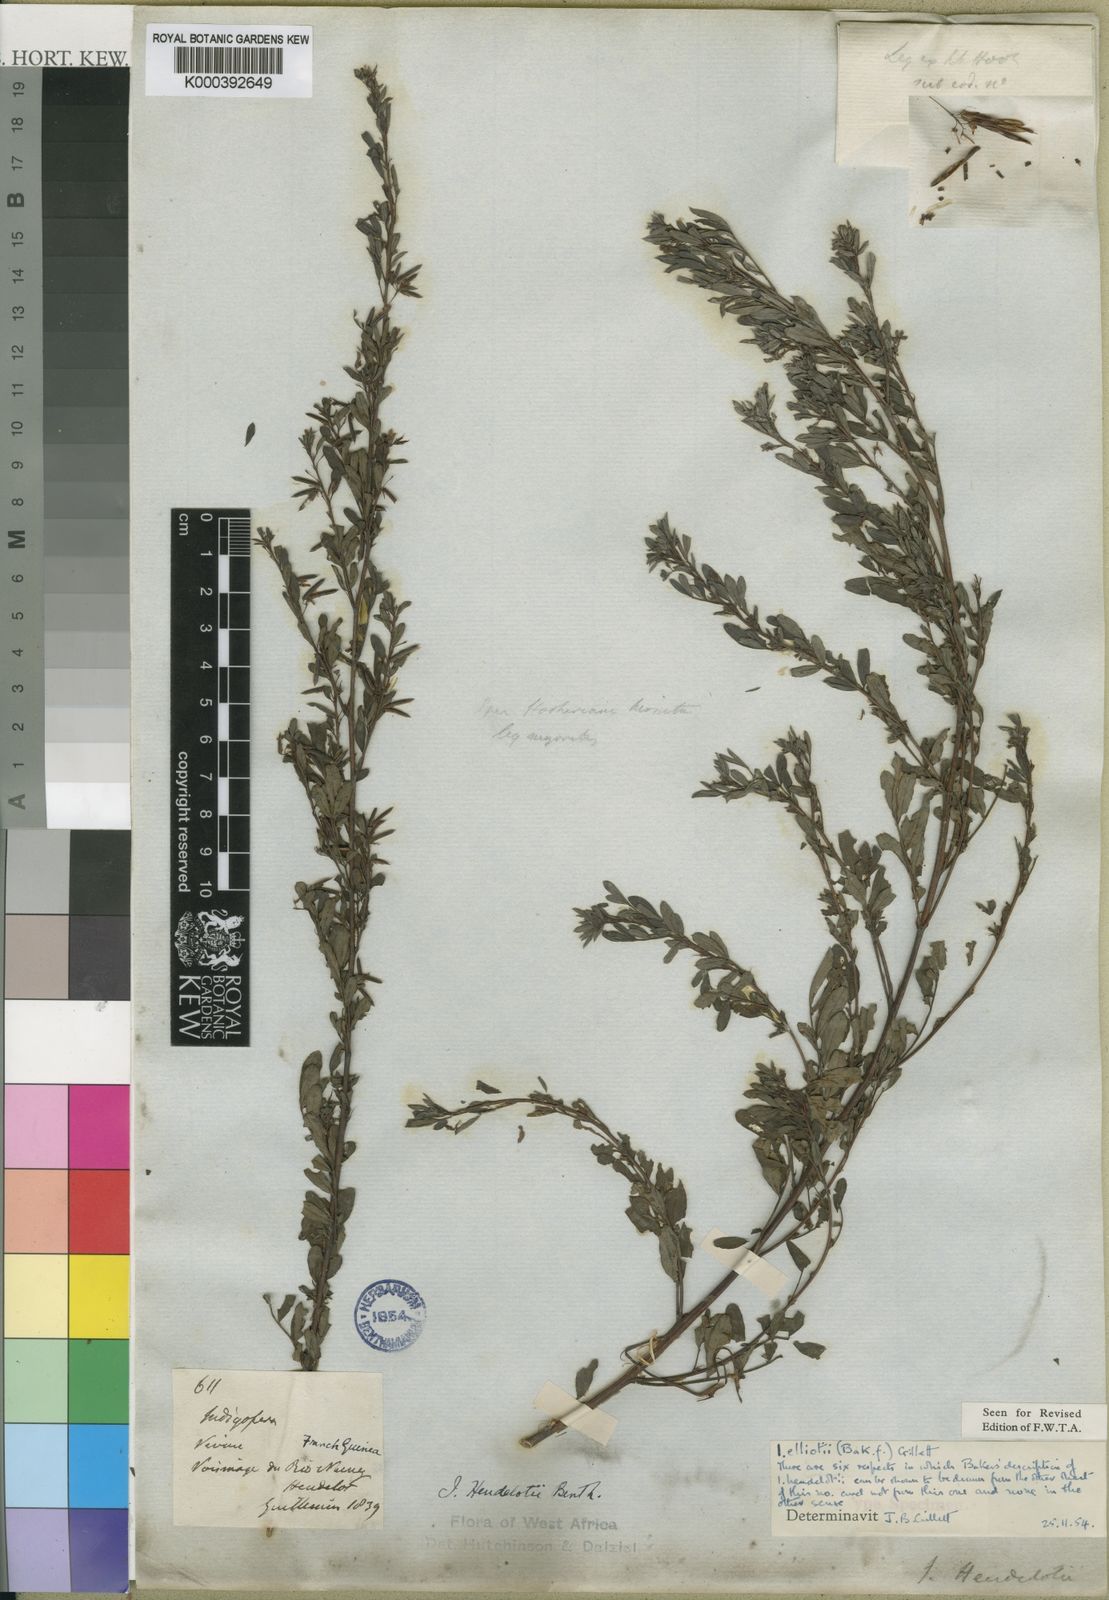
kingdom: Plantae
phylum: Tracheophyta
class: Magnoliopsida
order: Fabales
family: Fabaceae
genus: Indigofera
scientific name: Indigofera elliotii
